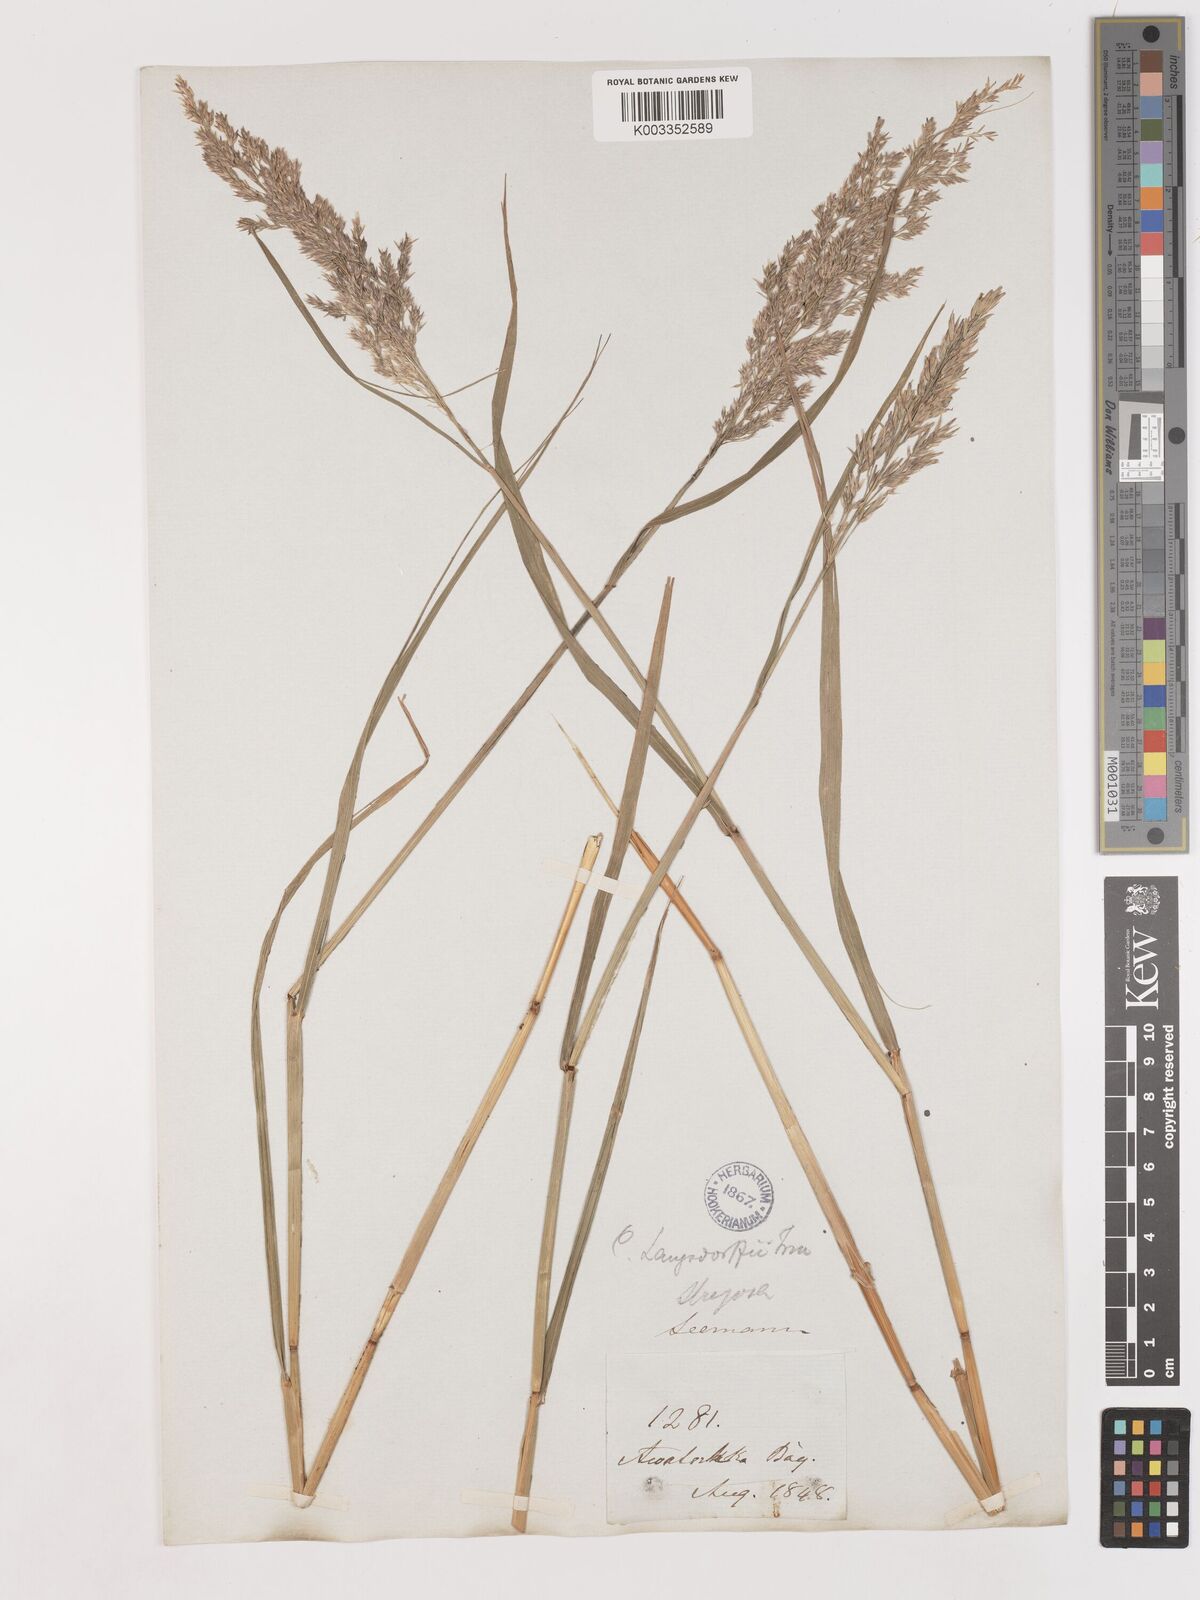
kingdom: Plantae
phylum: Tracheophyta
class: Liliopsida
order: Poales
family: Poaceae
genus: Calamagrostis
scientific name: Calamagrostis canadensis
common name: Canada bluejoint
